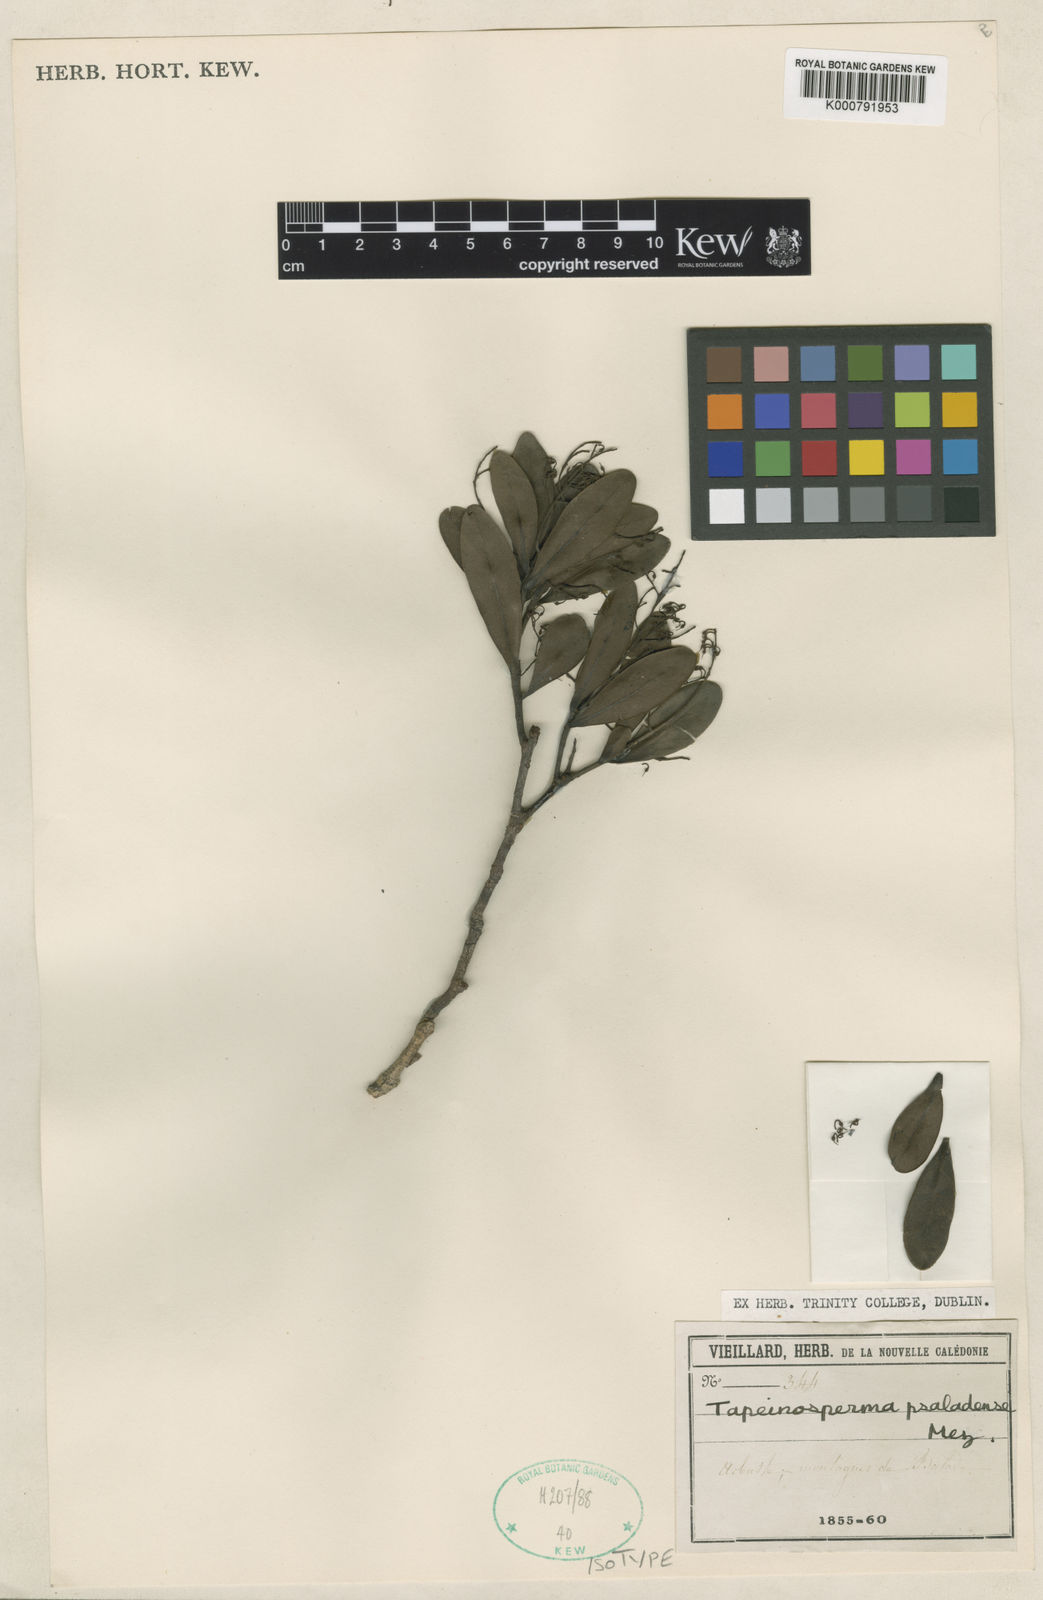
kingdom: Plantae
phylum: Tracheophyta
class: Magnoliopsida
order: Ericales
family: Primulaceae
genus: Tapeinosperma
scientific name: Tapeinosperma psaladense
